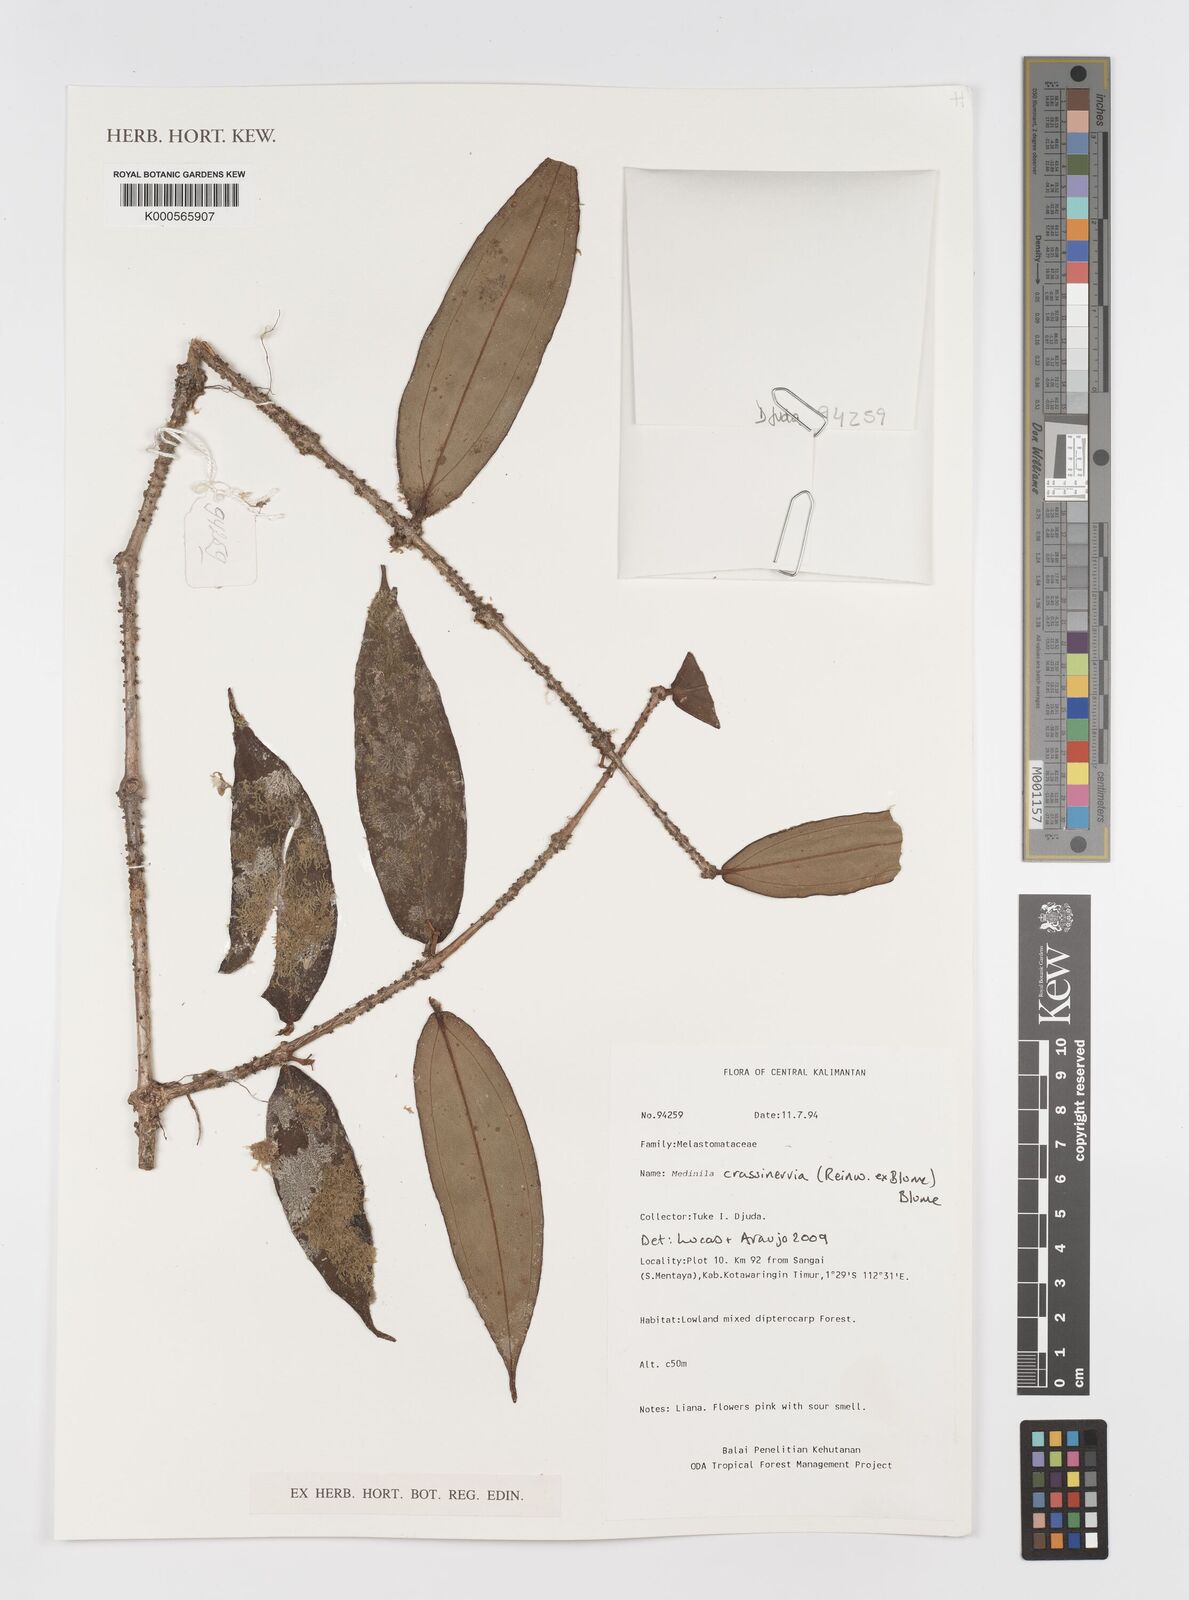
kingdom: Plantae
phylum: Tracheophyta
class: Magnoliopsida
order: Myrtales
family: Melastomataceae
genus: Medinilla
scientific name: Medinilla crassinervia
